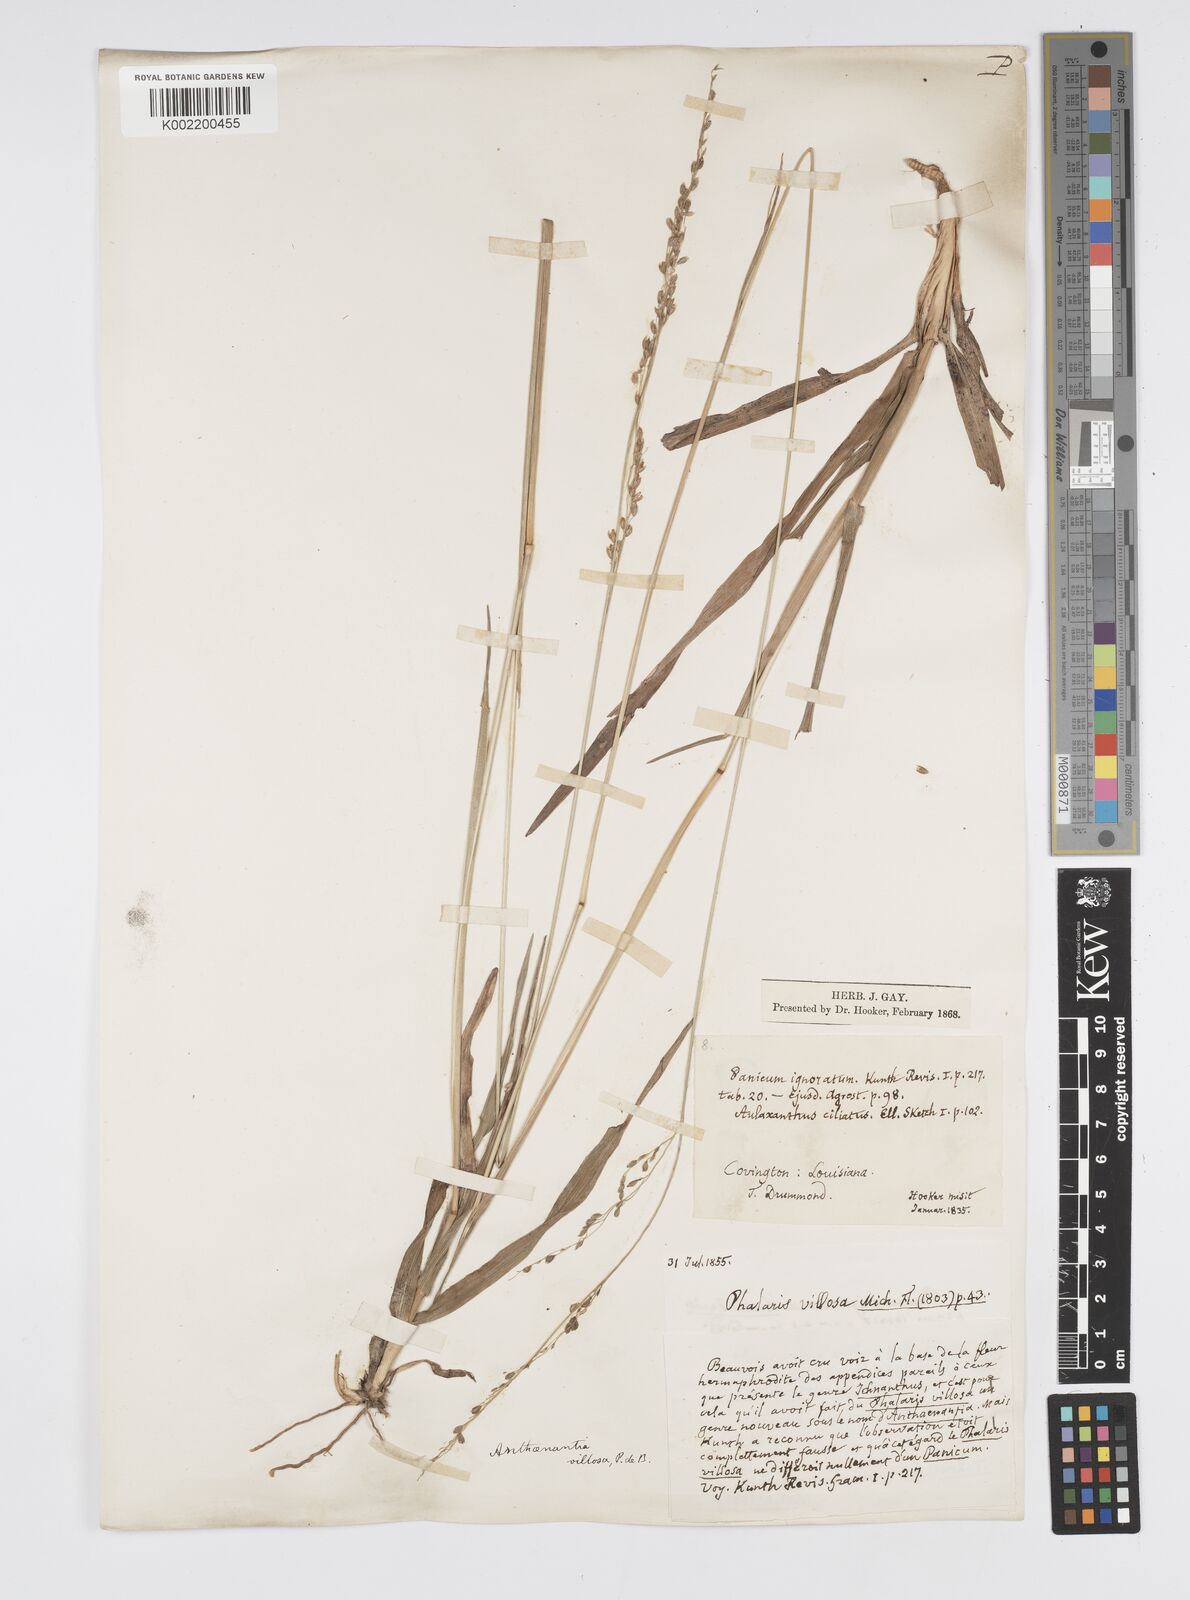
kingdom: Plantae
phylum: Tracheophyta
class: Liliopsida
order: Poales
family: Poaceae
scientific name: Poaceae
